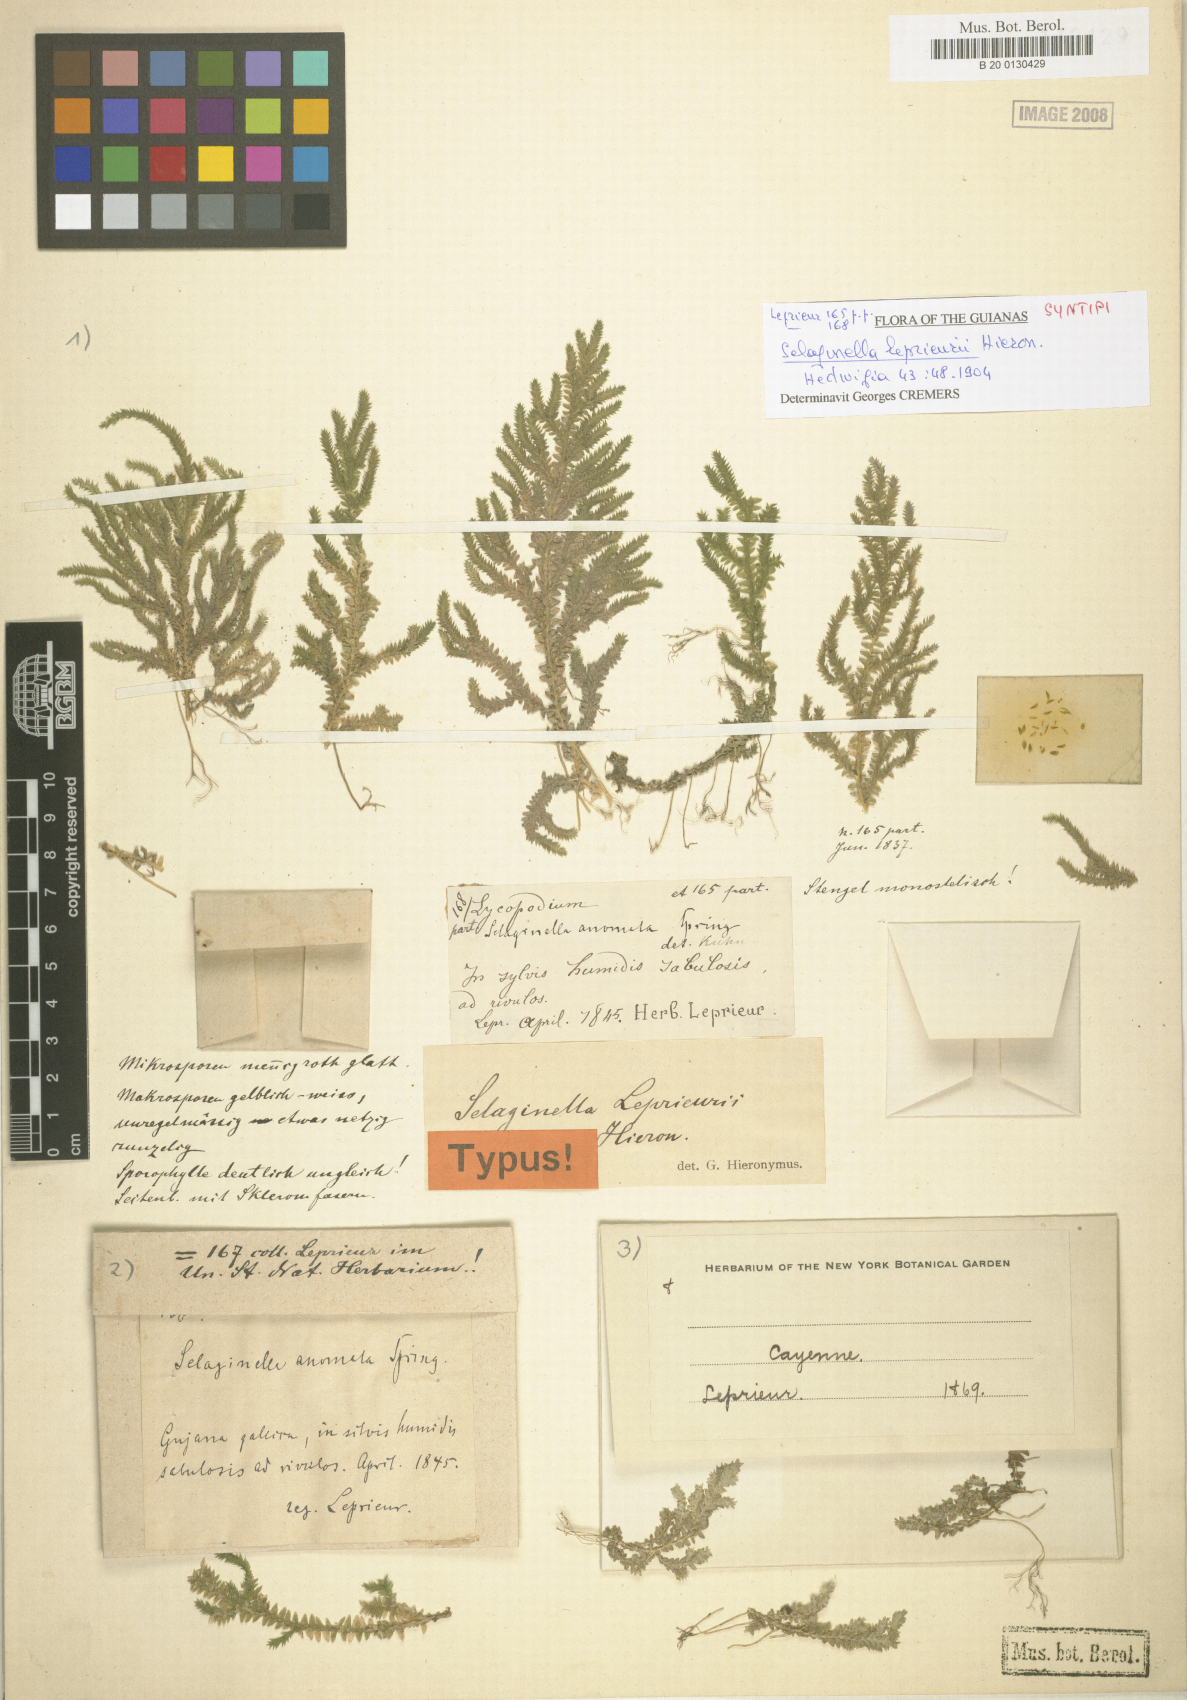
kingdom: Plantae
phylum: Tracheophyta
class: Lycopodiopsida
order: Selaginellales
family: Selaginellaceae
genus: Selaginella
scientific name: Selaginella porelloides
